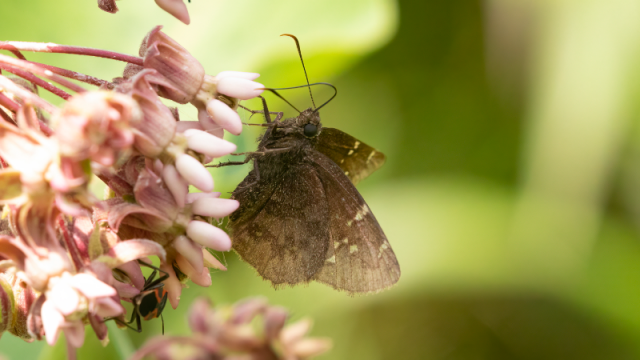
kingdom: Animalia
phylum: Arthropoda
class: Insecta
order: Lepidoptera
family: Hesperiidae
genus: Autochton
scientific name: Autochton
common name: Northern Cloudywing
